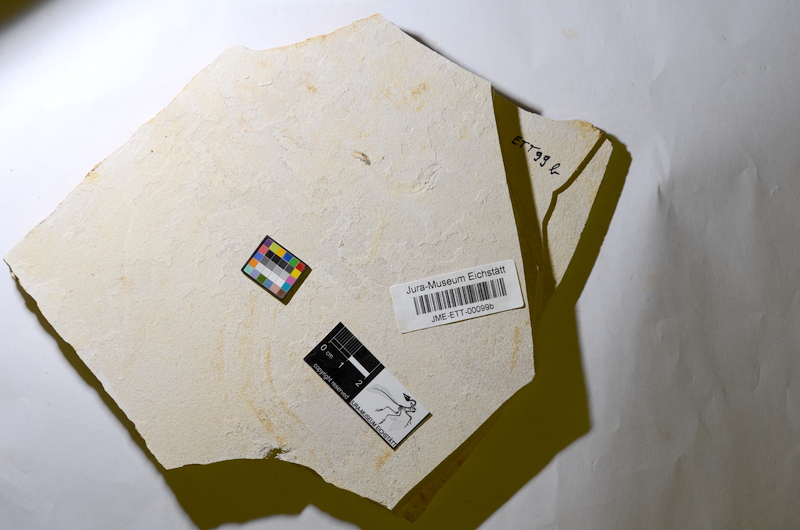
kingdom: Animalia
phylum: Chordata
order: Salmoniformes
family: Orthogonikleithridae
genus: Orthogonikleithrus
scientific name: Orthogonikleithrus hoelli
